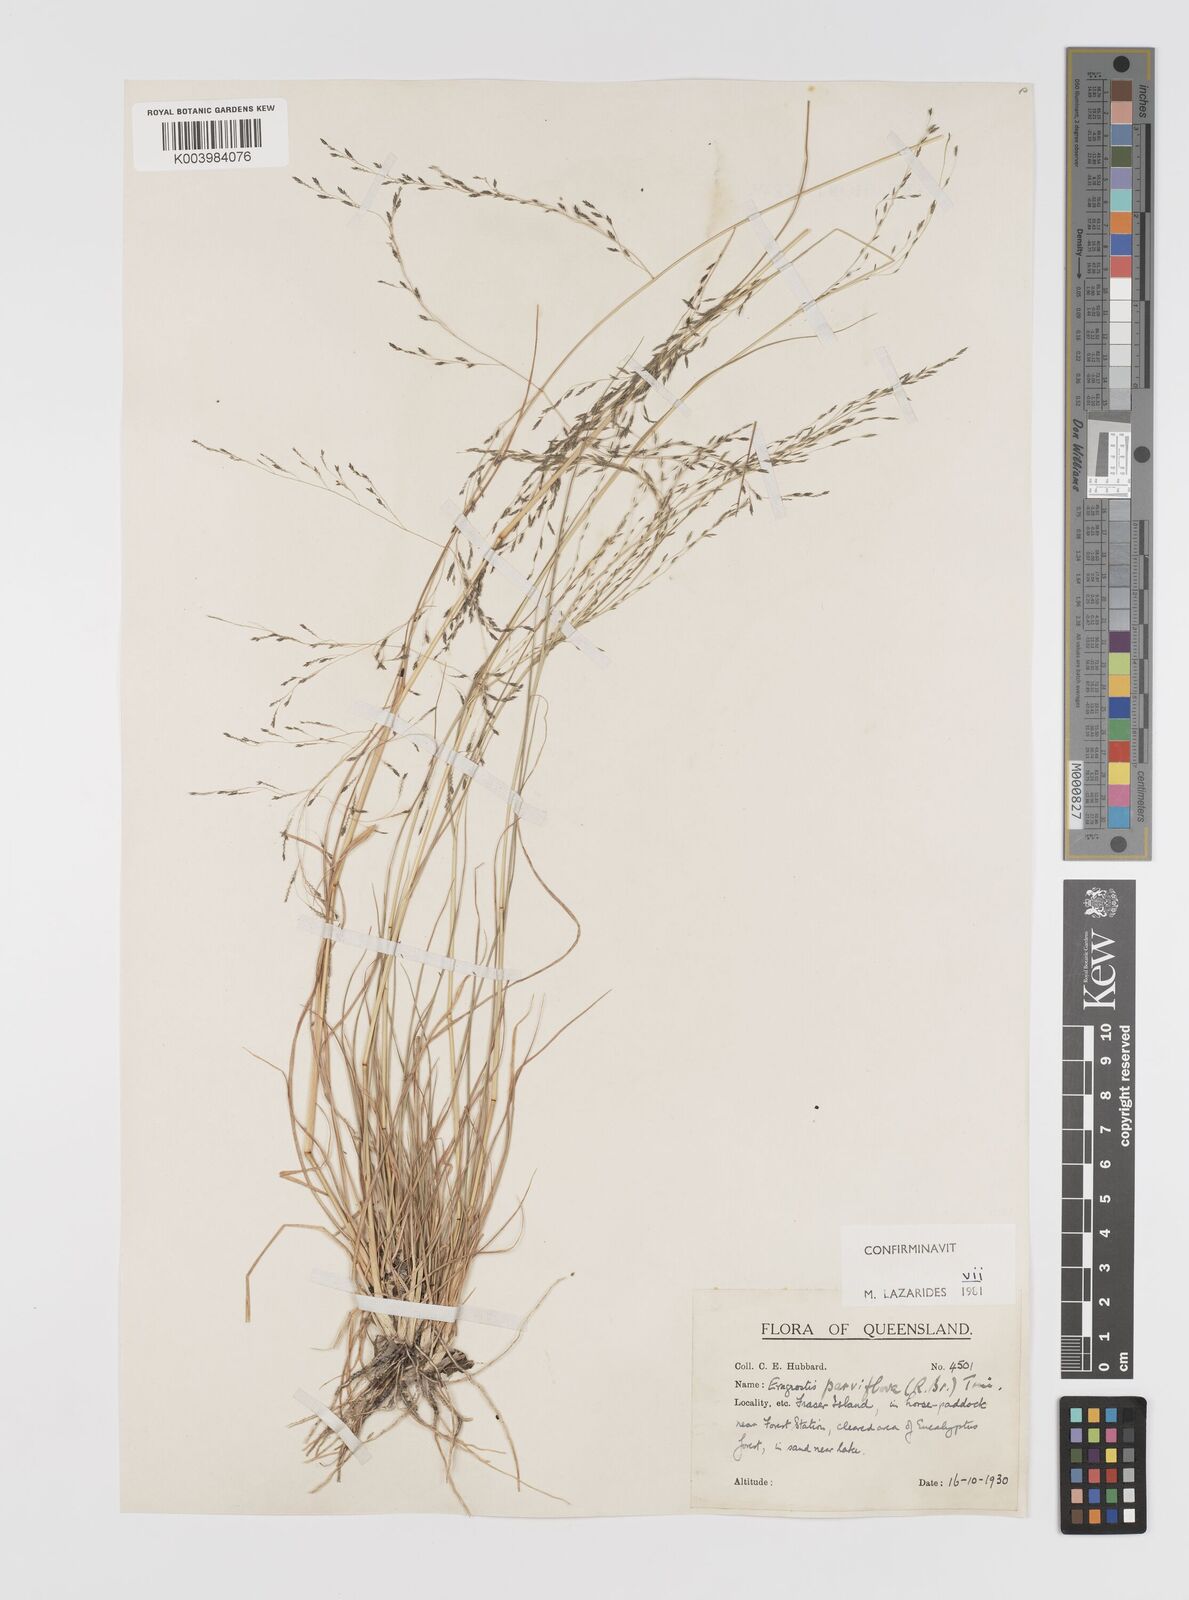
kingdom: Plantae
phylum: Tracheophyta
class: Liliopsida
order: Poales
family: Poaceae
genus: Eragrostis
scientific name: Eragrostis parviflora
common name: Weeping love-grass
